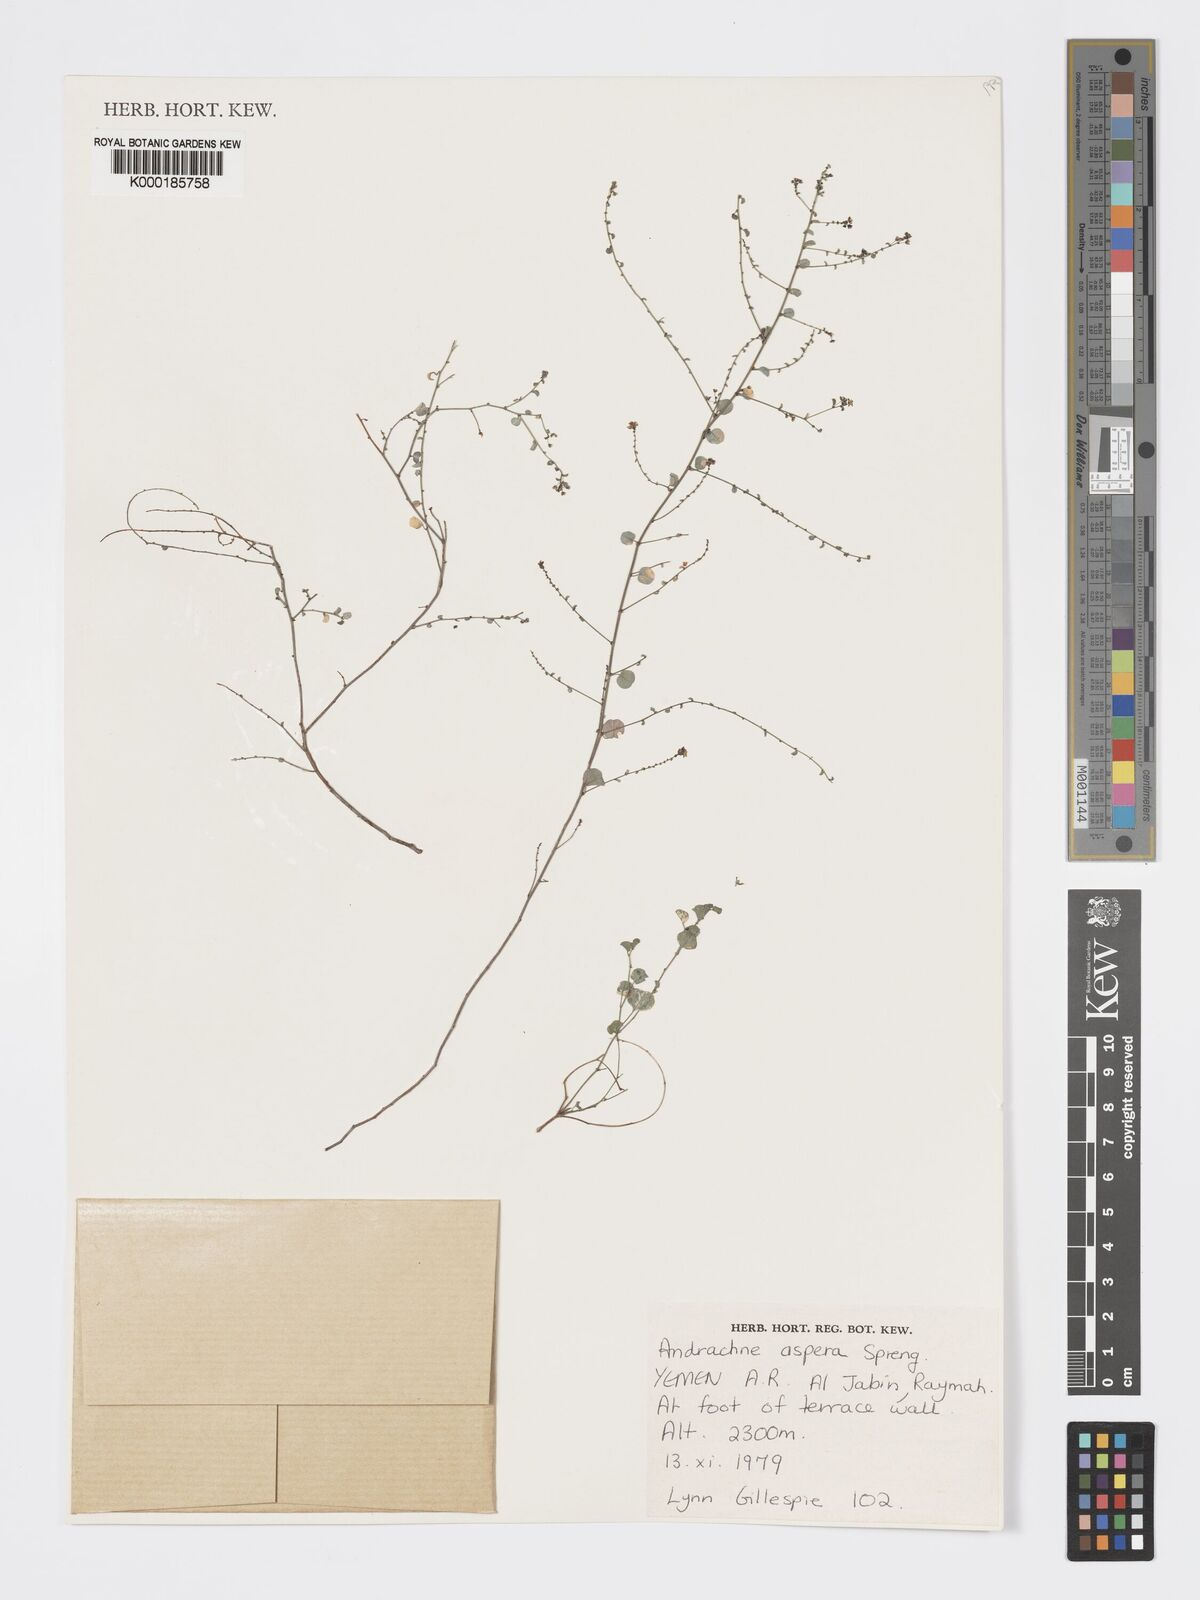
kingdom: Plantae
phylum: Tracheophyta
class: Magnoliopsida
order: Malpighiales
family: Phyllanthaceae
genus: Andrachne
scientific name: Andrachne aspera
